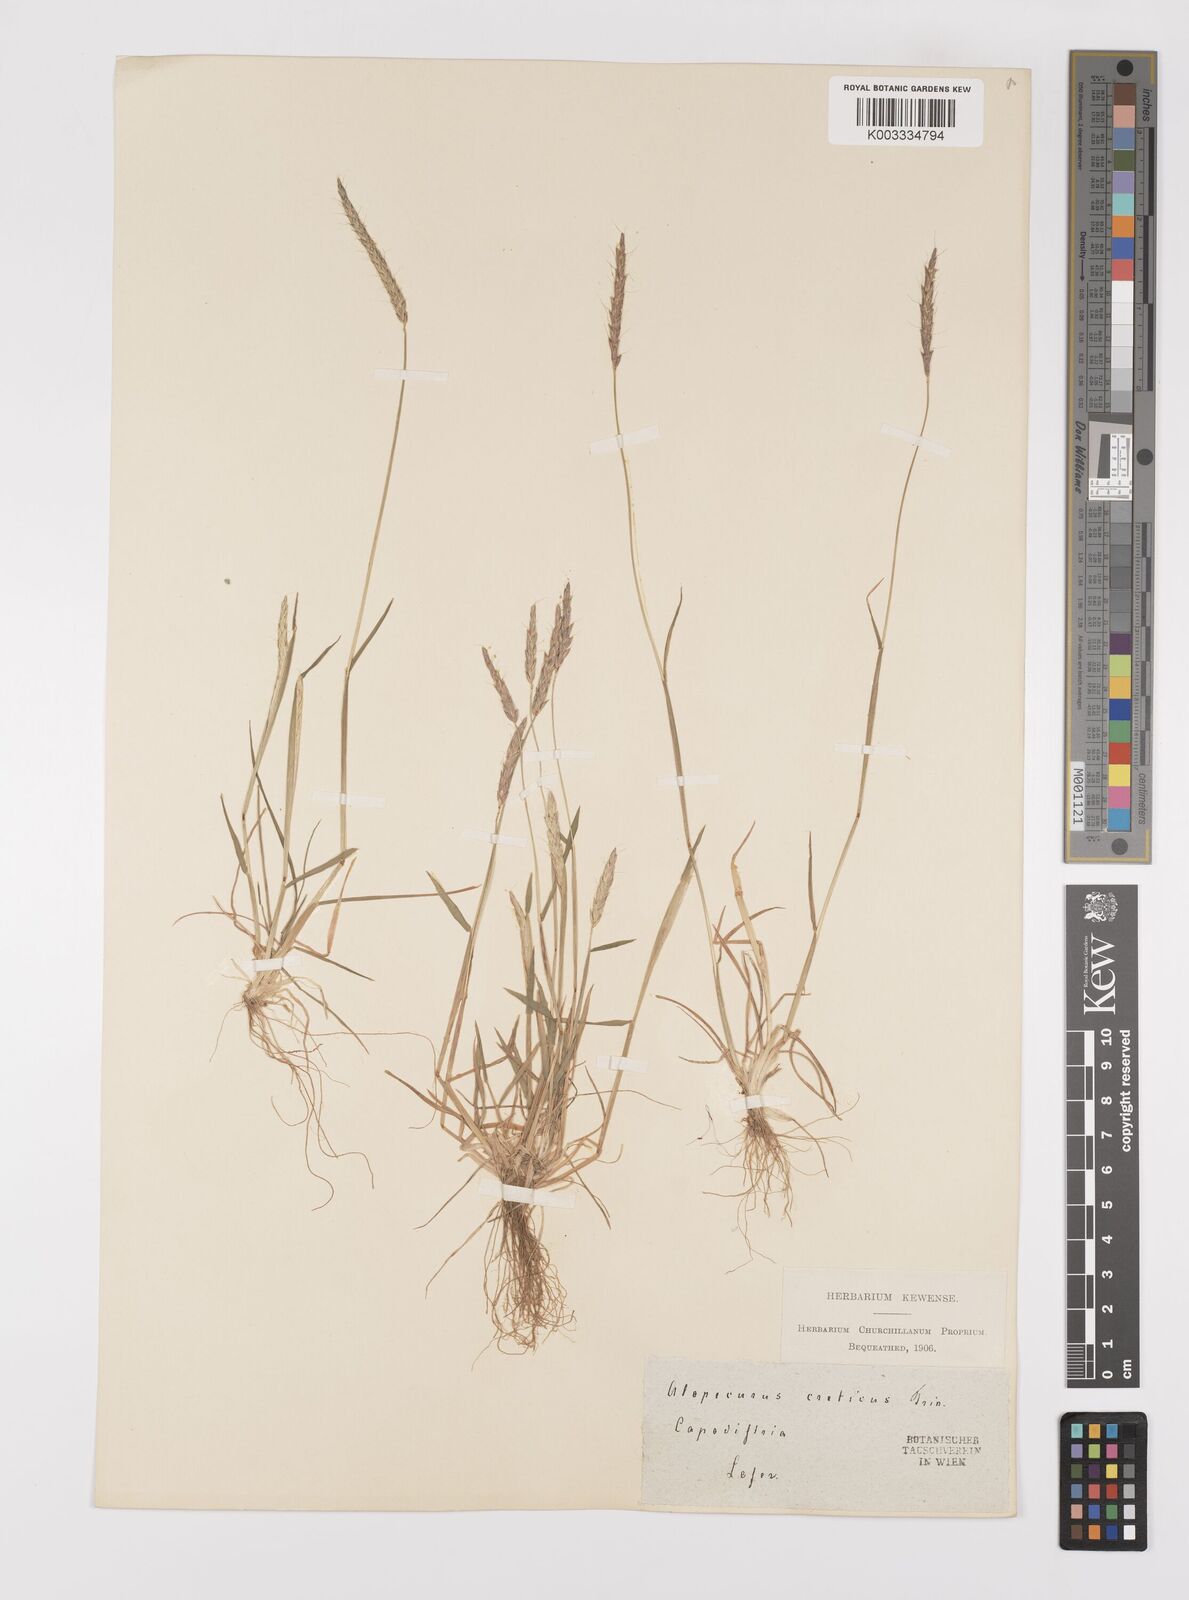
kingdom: Plantae
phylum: Tracheophyta
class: Liliopsida
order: Poales
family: Poaceae
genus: Alopecurus
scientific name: Alopecurus myosuroides
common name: Black-grass
